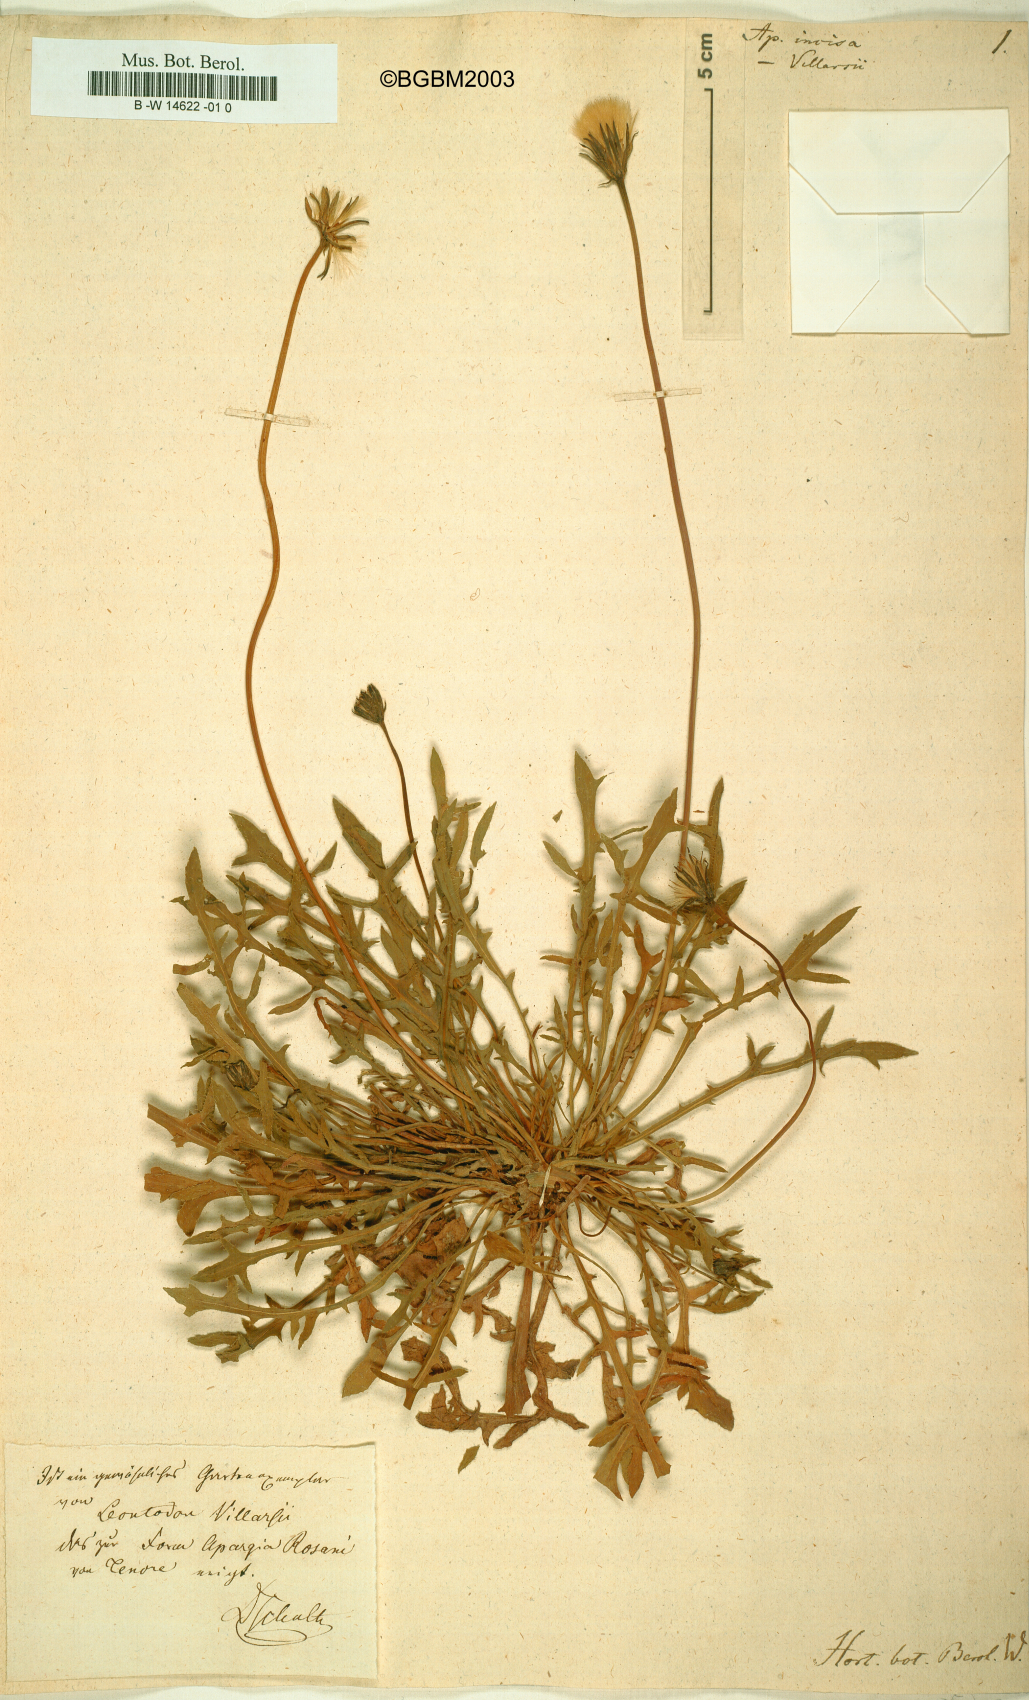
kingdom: Plantae
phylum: Tracheophyta
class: Magnoliopsida
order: Asterales
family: Asteraceae
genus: Leontodon
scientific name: Leontodon
